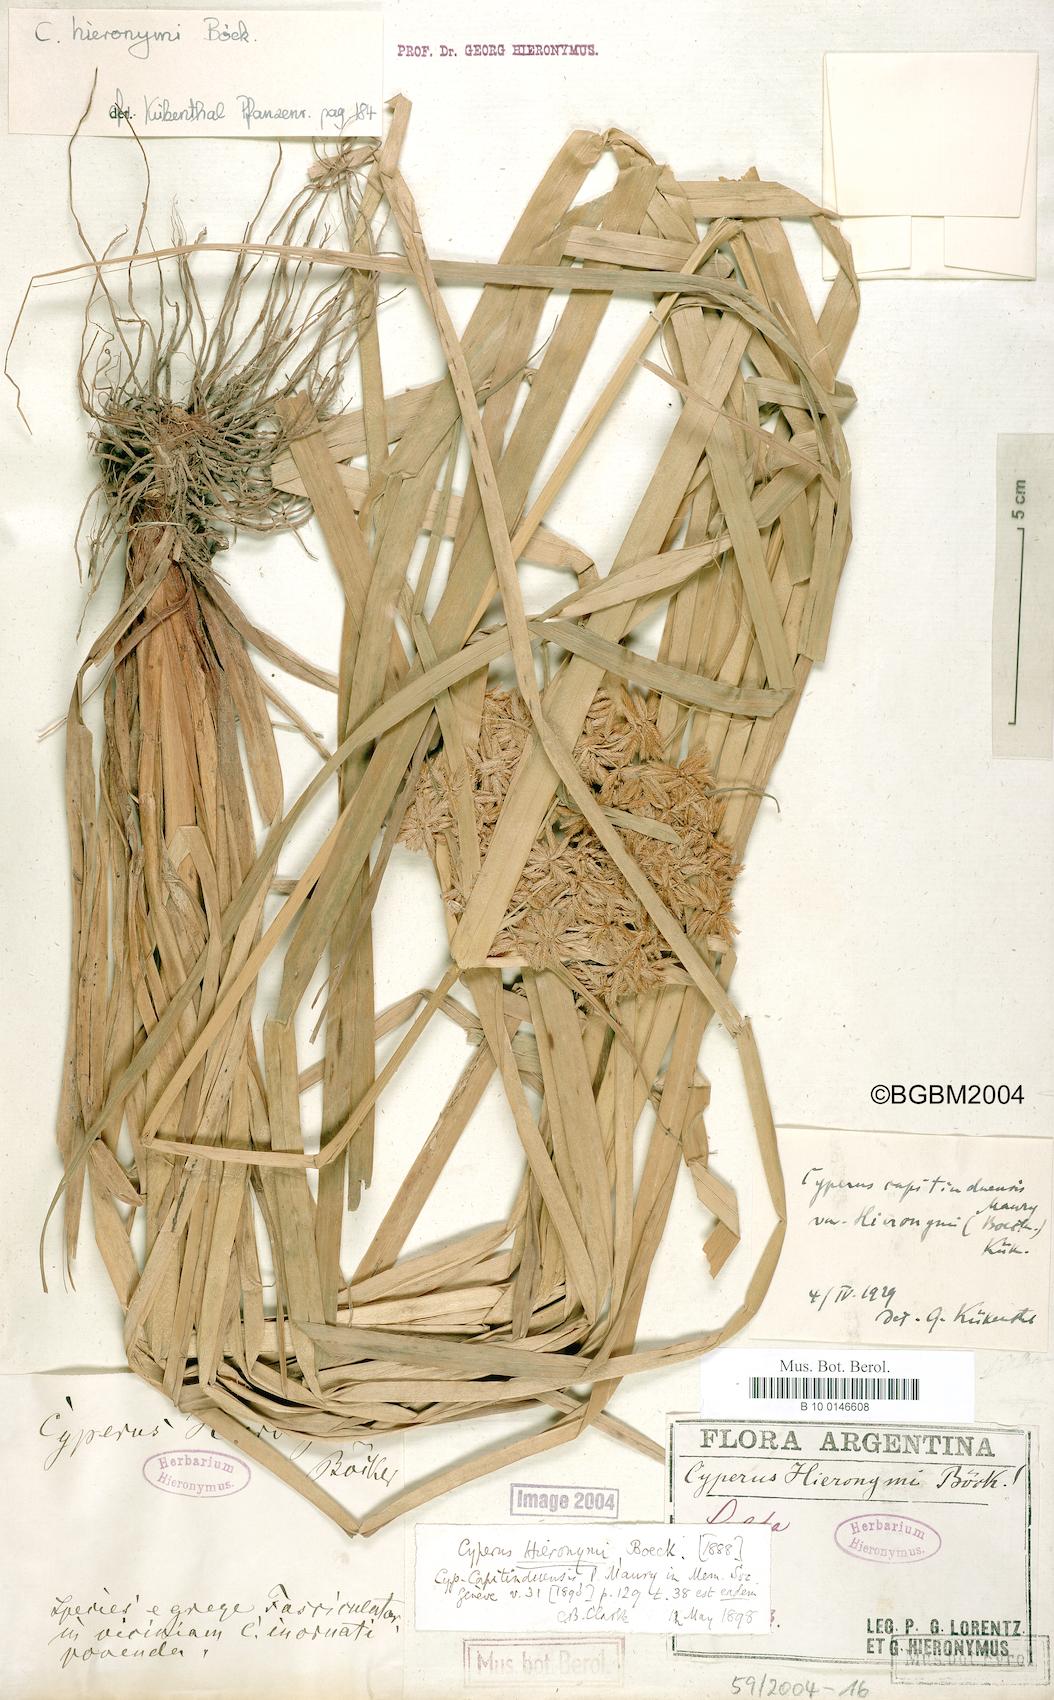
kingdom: Plantae
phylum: Tracheophyta
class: Liliopsida
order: Poales
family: Cyperaceae
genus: Cyperus
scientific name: Cyperus hieronymi
